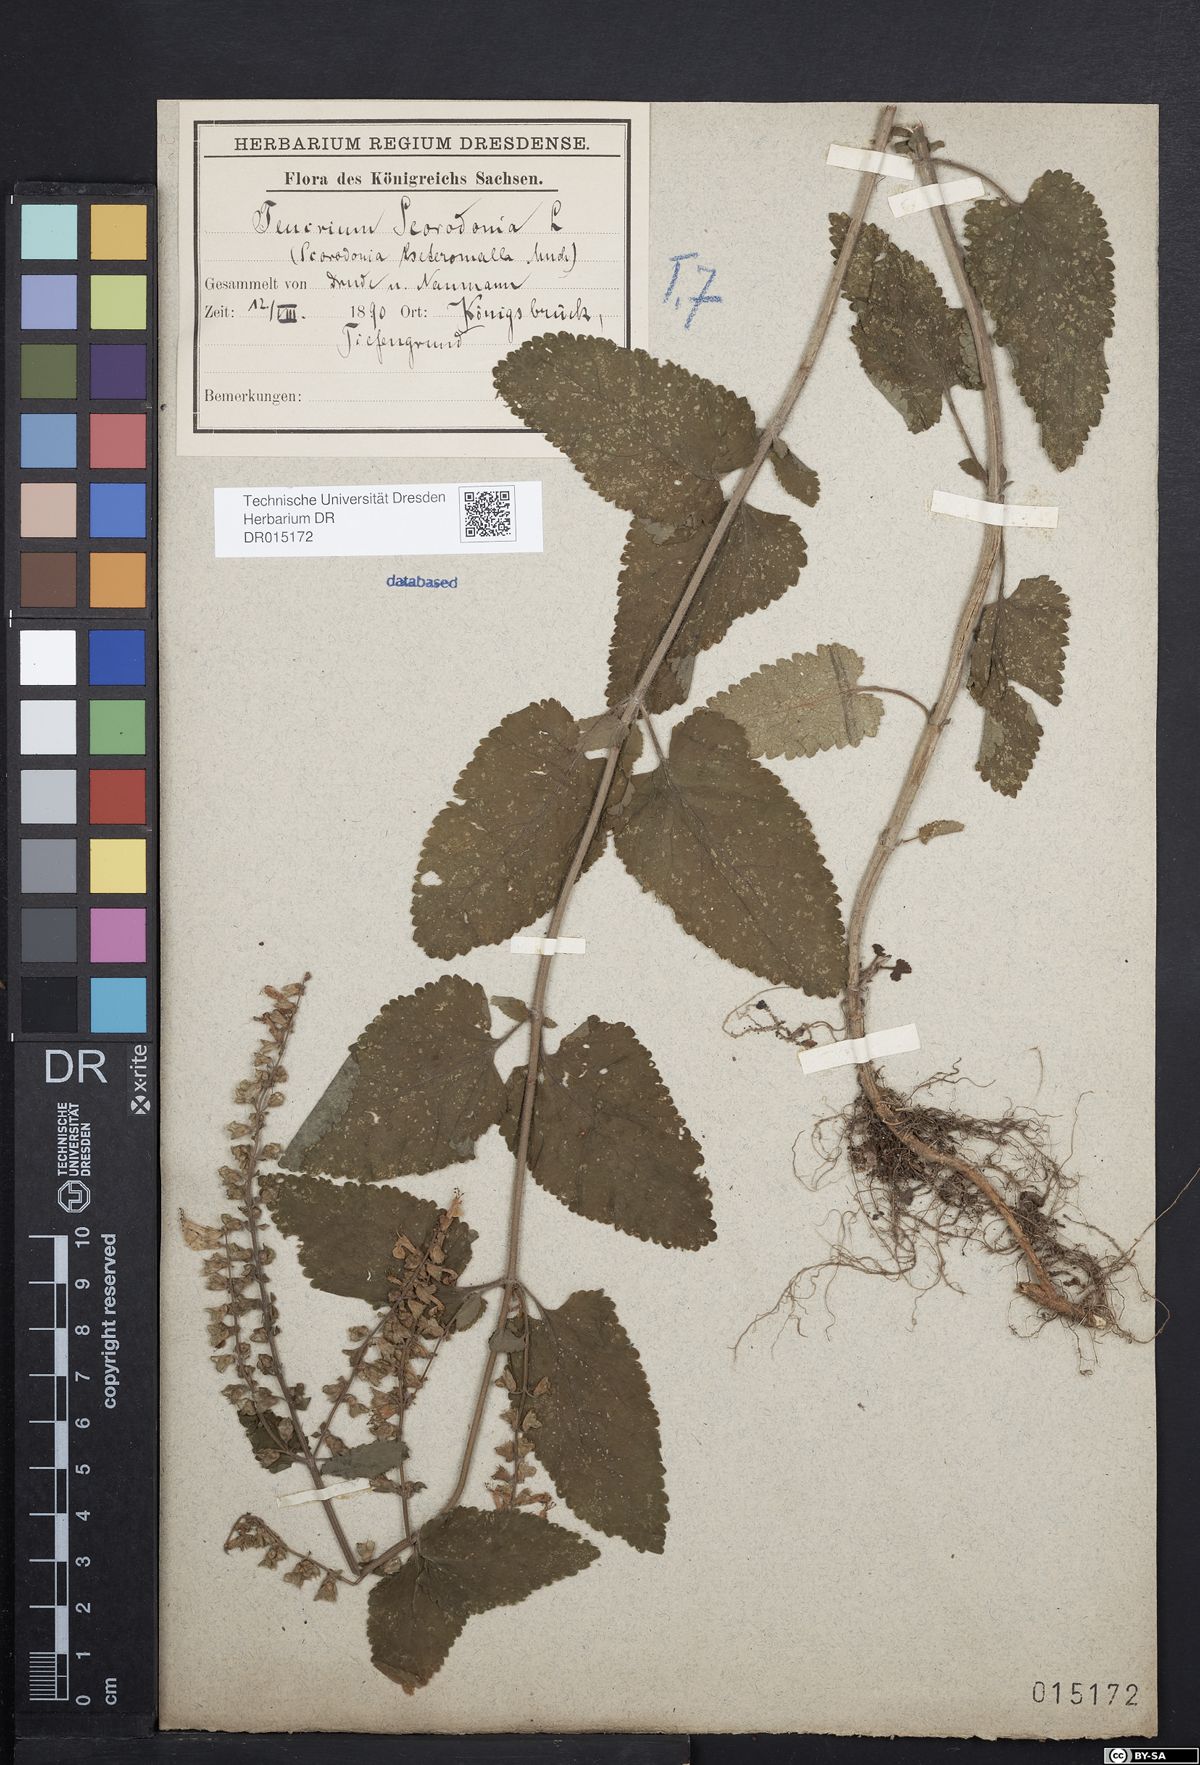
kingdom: Plantae
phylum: Tracheophyta
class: Magnoliopsida
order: Lamiales
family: Lamiaceae
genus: Teucrium
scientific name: Teucrium scorodonia
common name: Woodland germander
